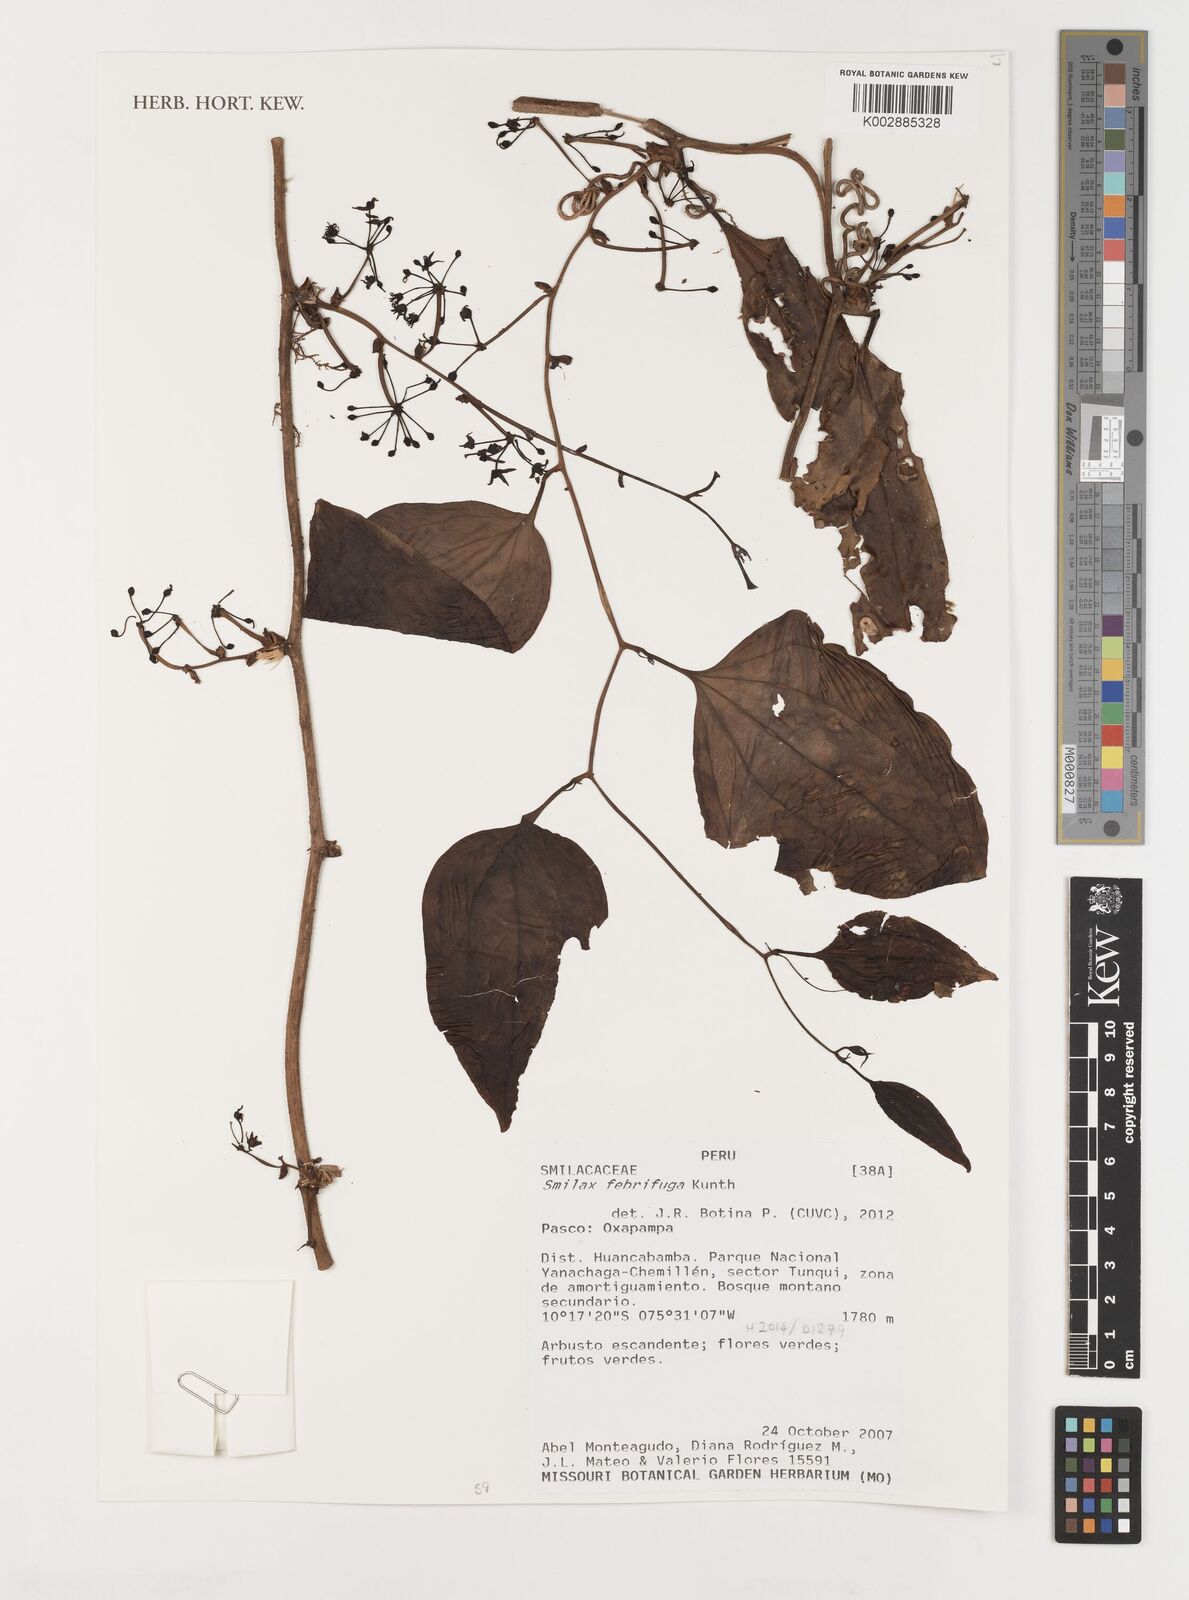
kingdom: Plantae
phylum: Tracheophyta
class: Liliopsida
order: Liliales
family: Smilacaceae
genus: Smilax
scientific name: Smilax purhampuy
